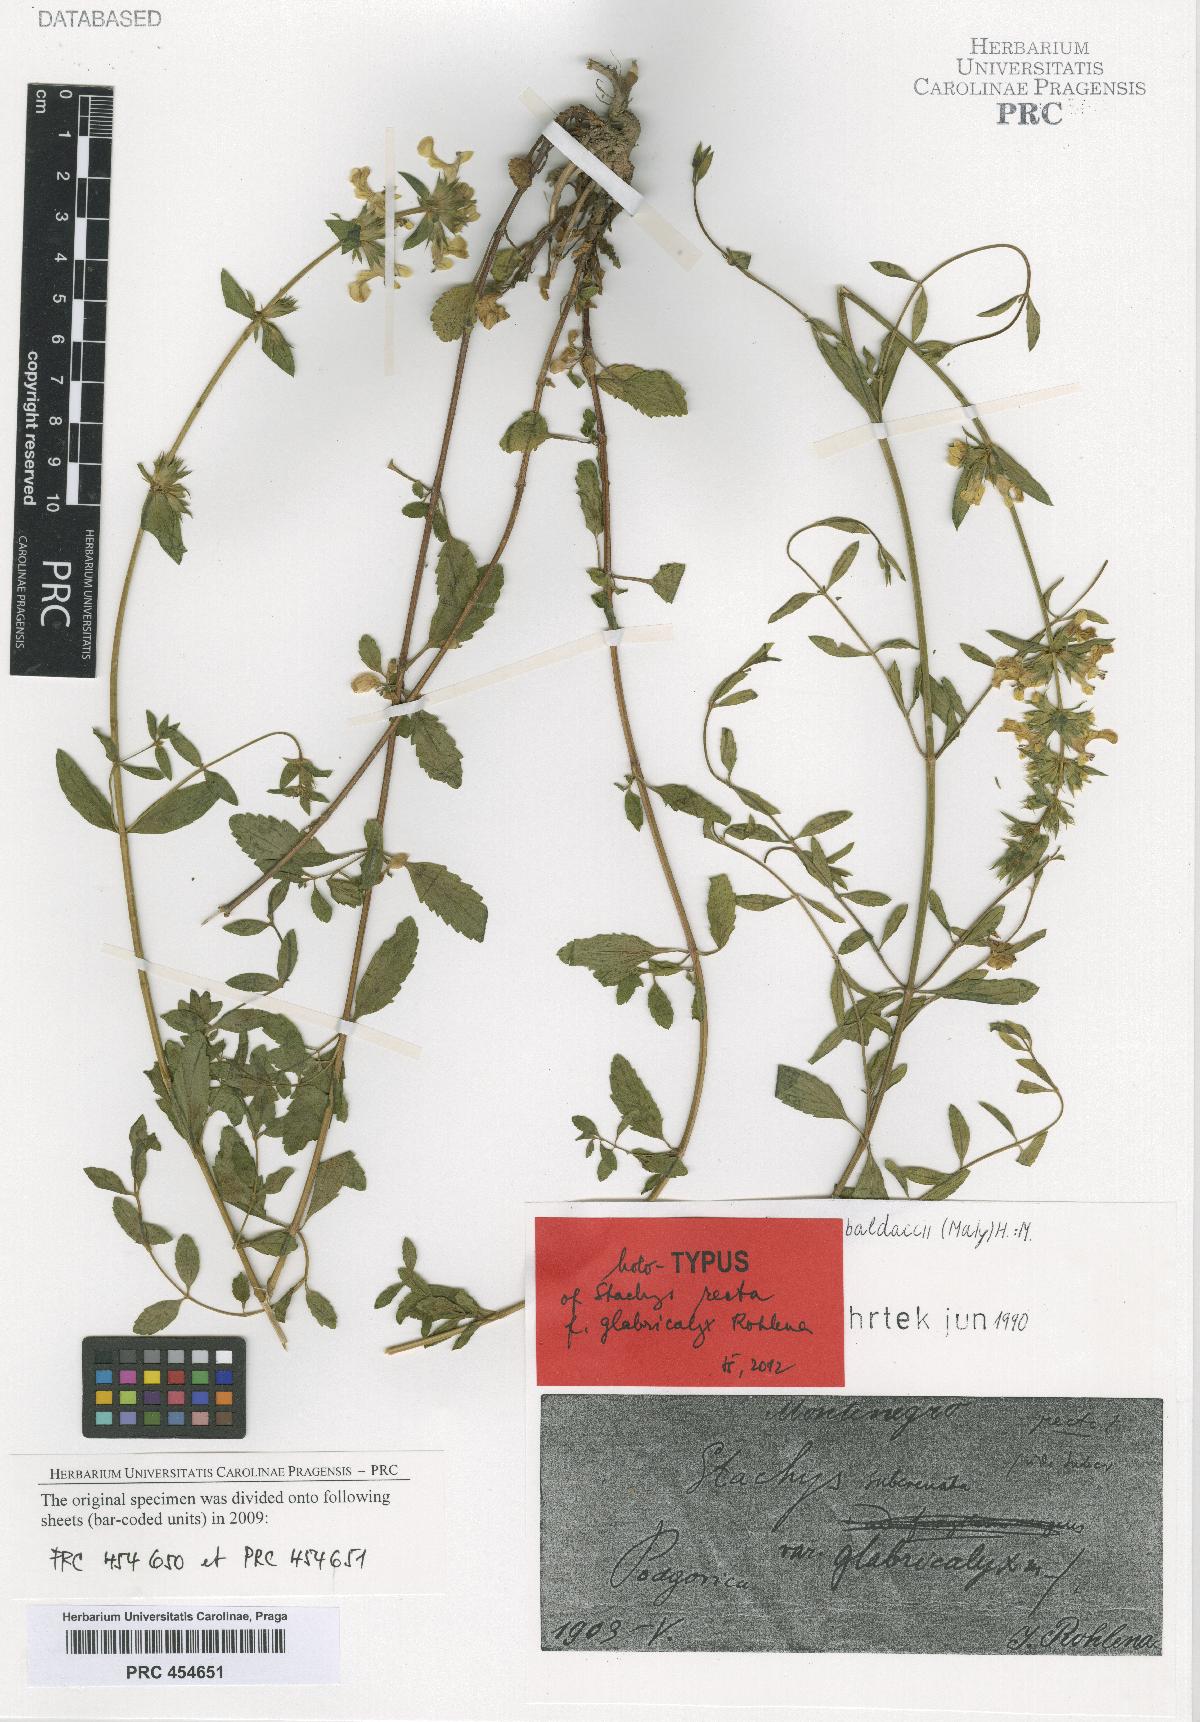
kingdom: Plantae
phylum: Tracheophyta
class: Magnoliopsida
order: Lamiales
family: Lamiaceae
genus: Stachys
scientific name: Stachys recta
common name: Perennial yellow-woundwort
